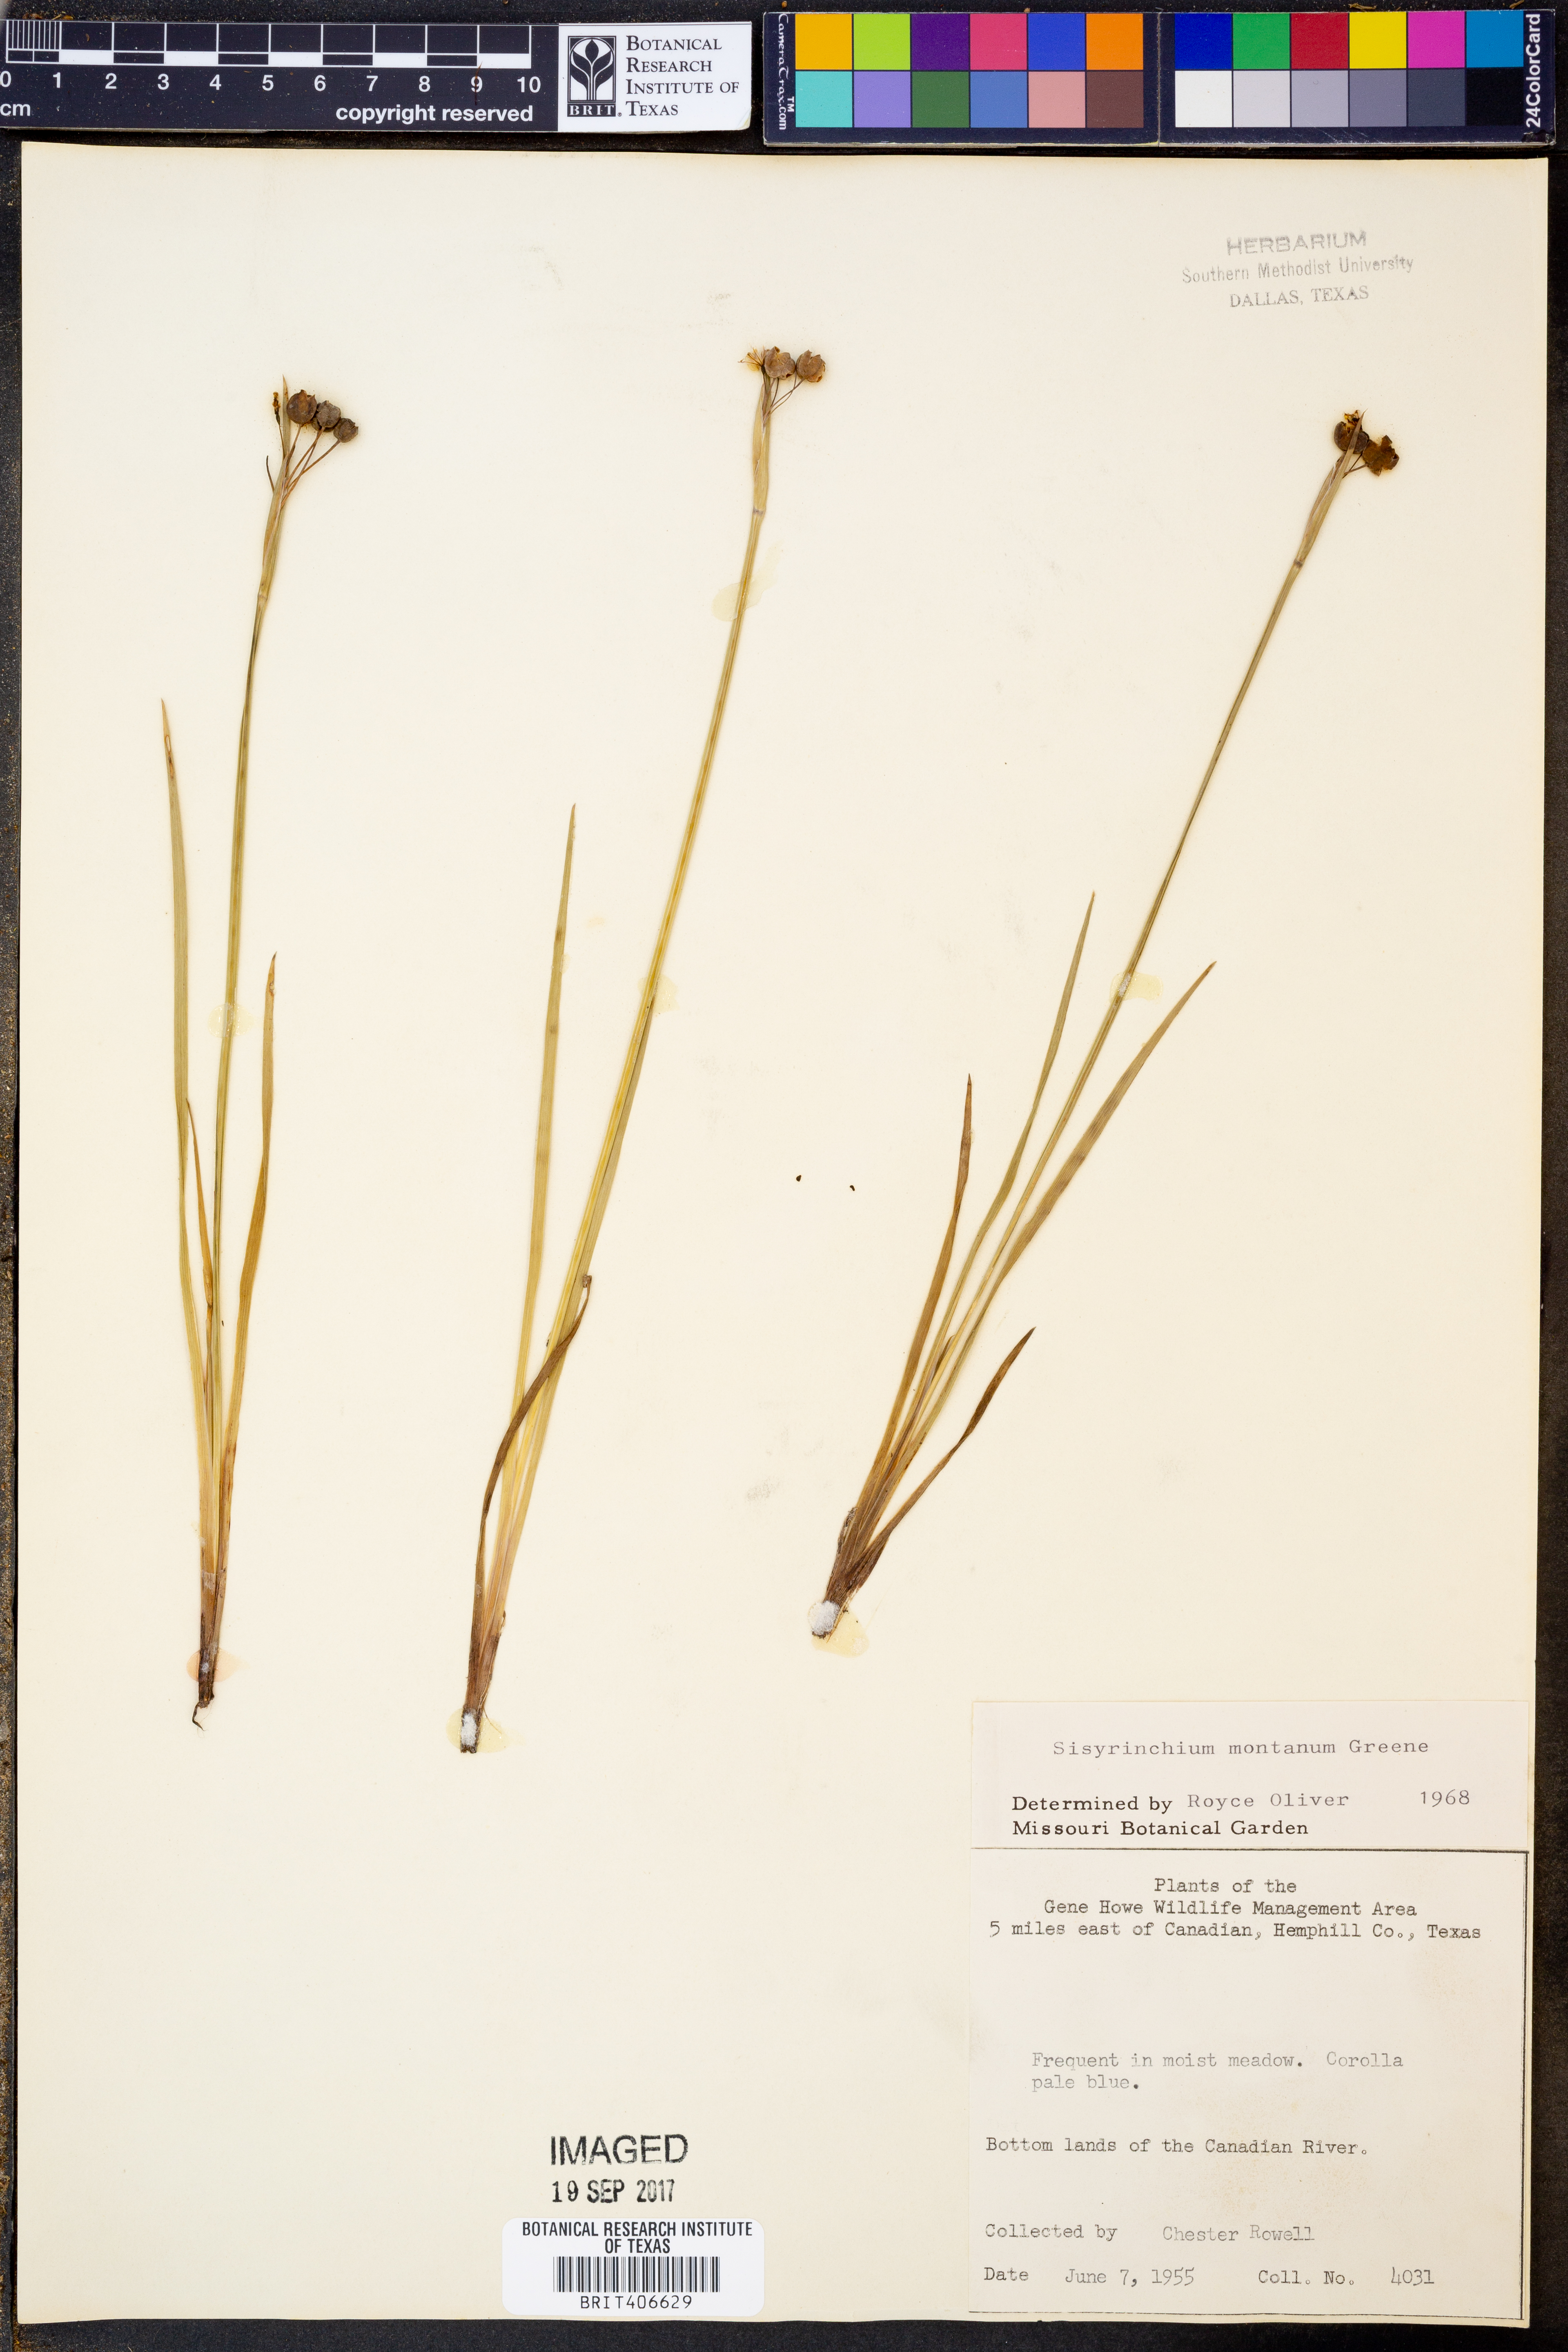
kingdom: Plantae
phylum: Tracheophyta
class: Liliopsida
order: Asparagales
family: Iridaceae
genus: Sisyrinchium
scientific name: Sisyrinchium montanum
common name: American blue-eyed-grass
